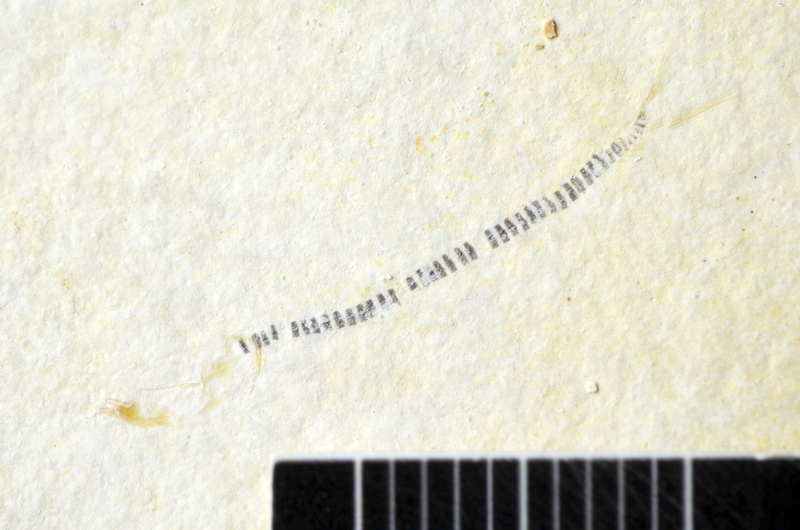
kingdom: Animalia
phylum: Chordata
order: Salmoniformes
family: Orthogonikleithridae
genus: Orthogonikleithrus
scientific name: Orthogonikleithrus hoelli
